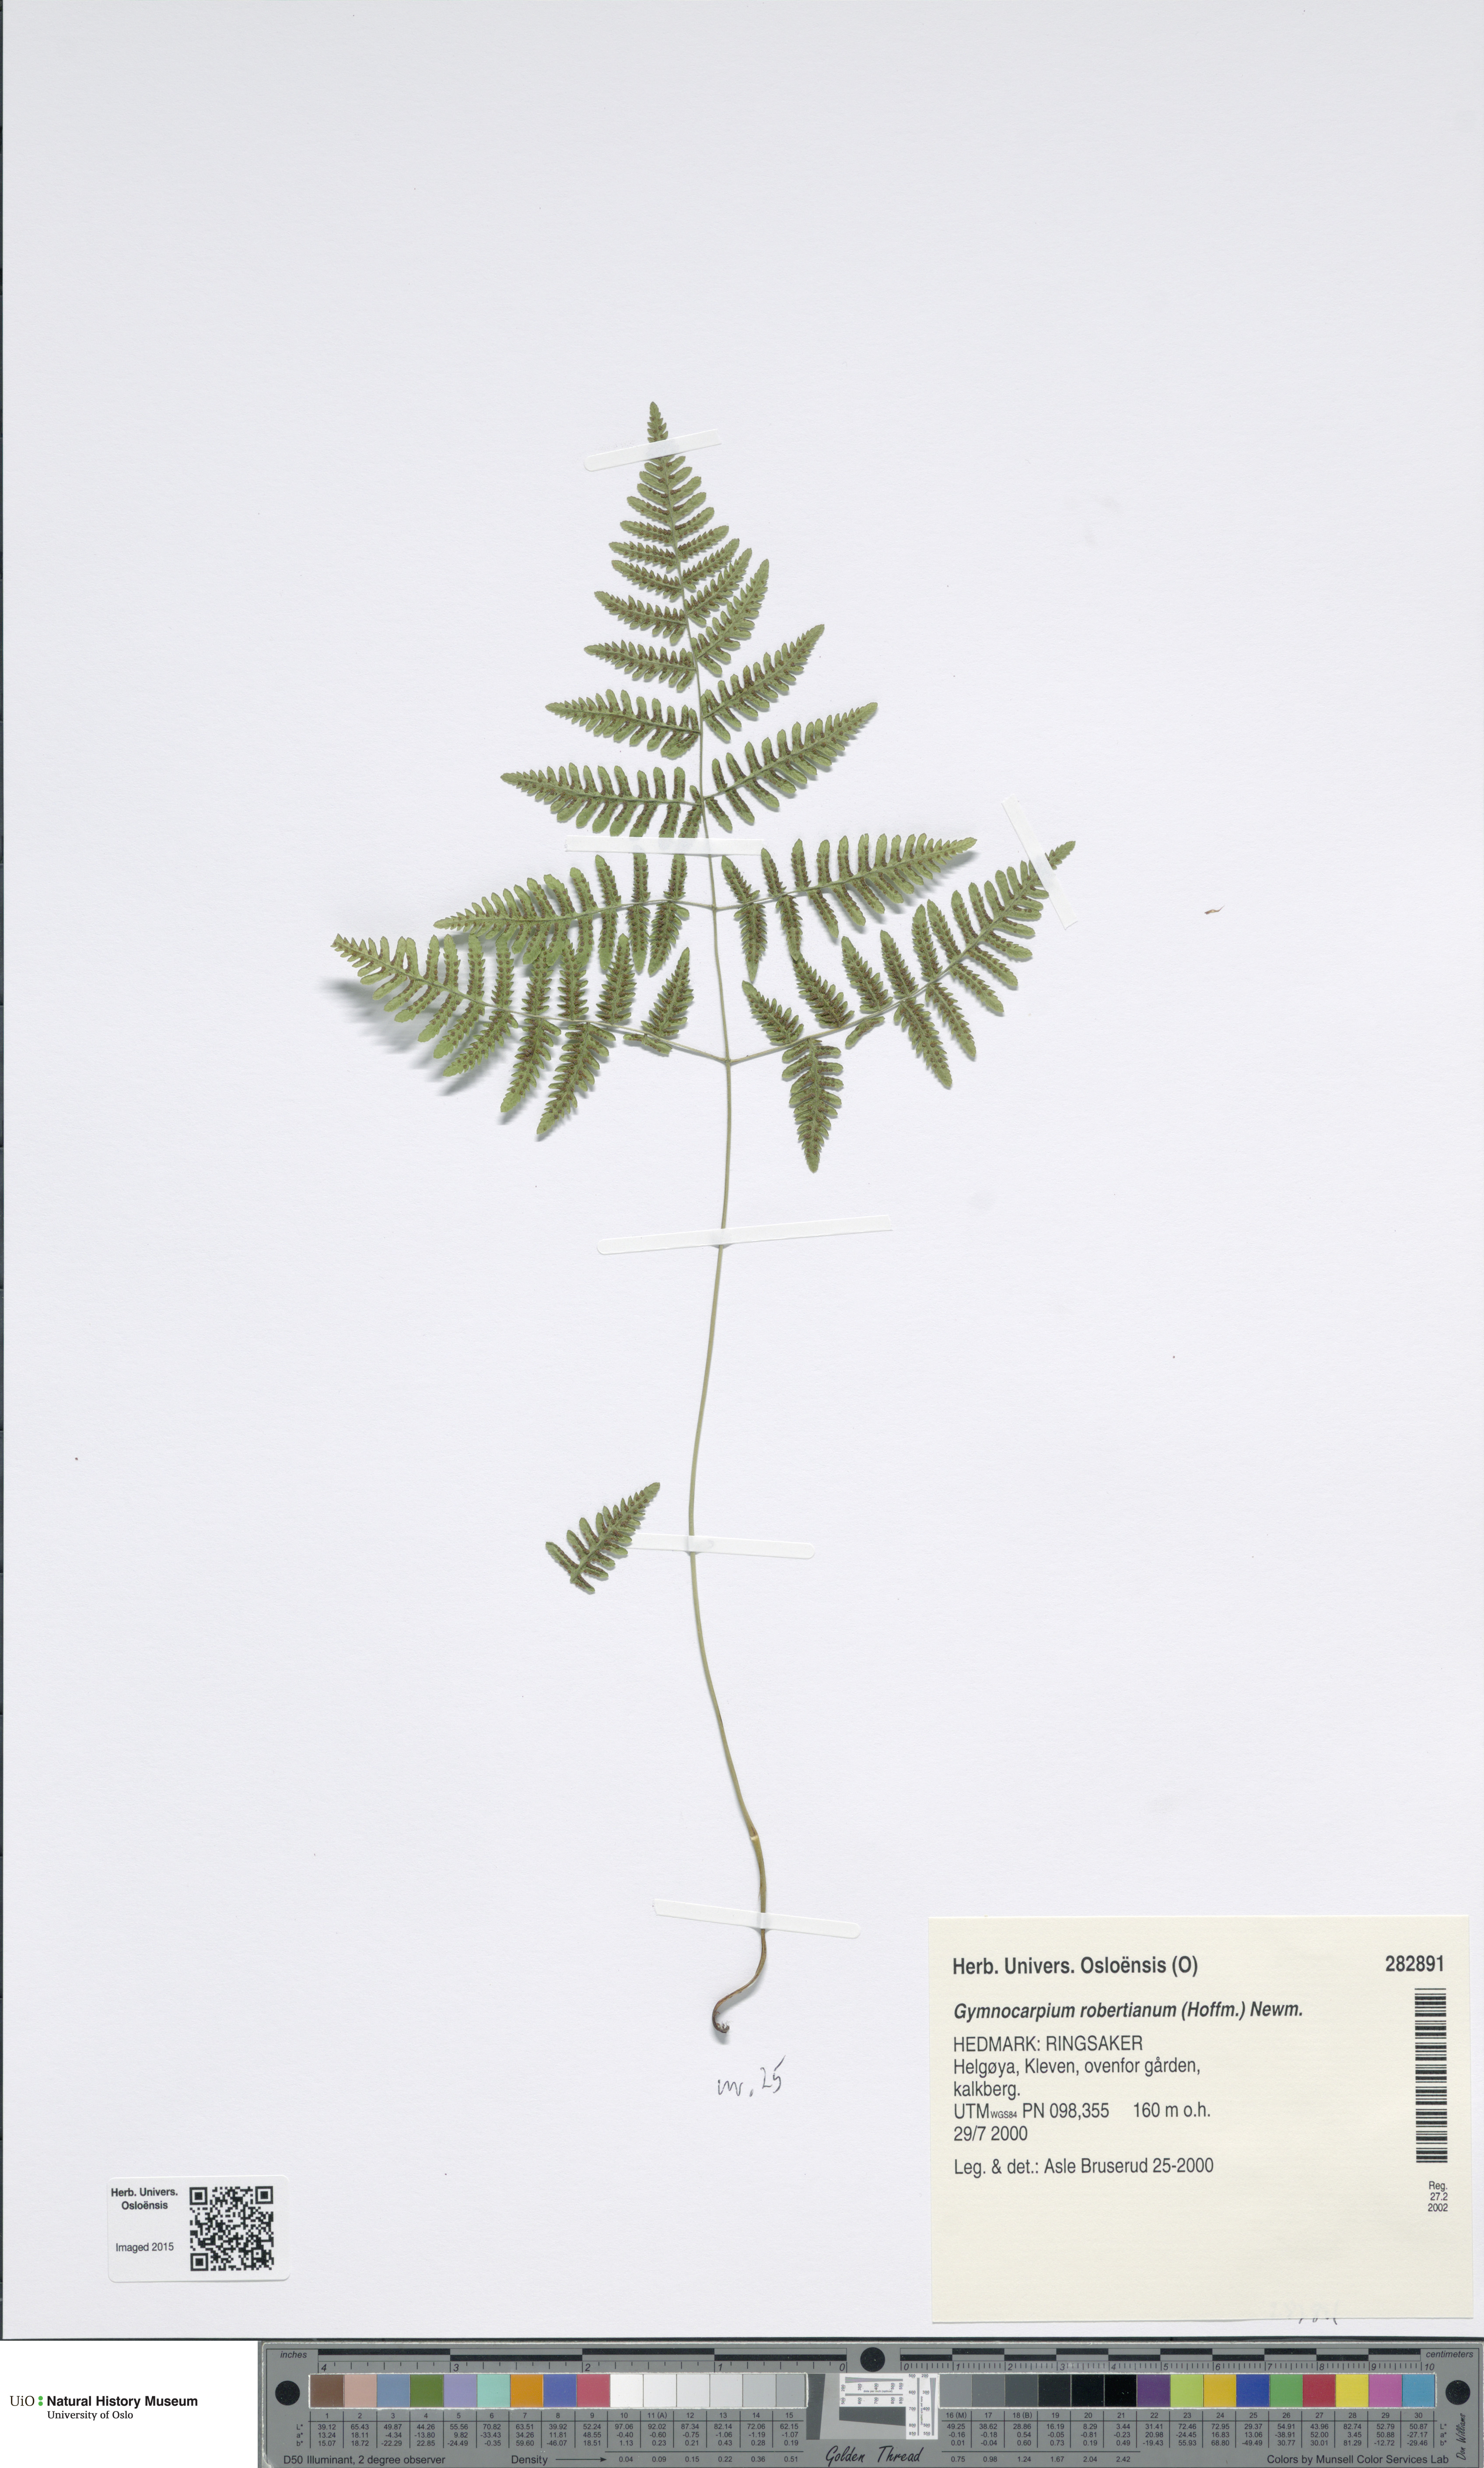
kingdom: Plantae
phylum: Tracheophyta
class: Polypodiopsida
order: Polypodiales
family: Cystopteridaceae
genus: Gymnocarpium
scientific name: Gymnocarpium robertianum
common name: Limestone fern
